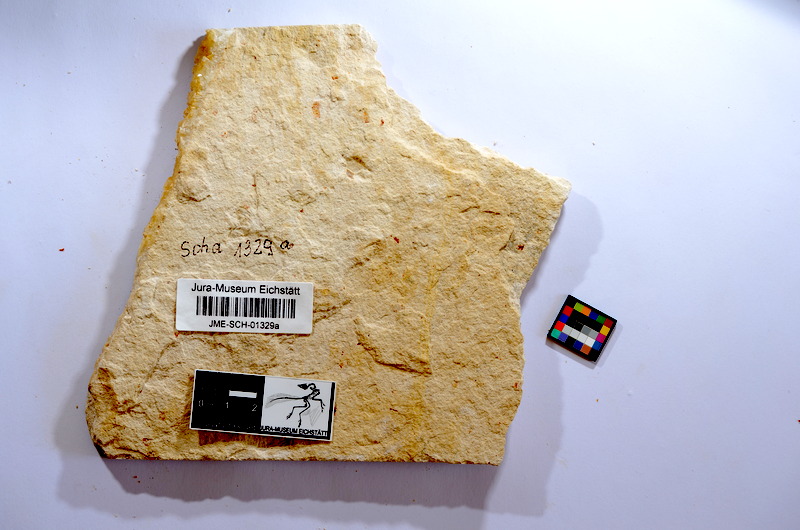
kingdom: Animalia
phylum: Chordata
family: Ascalaboidae
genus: Tharsis
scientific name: Tharsis dubius
